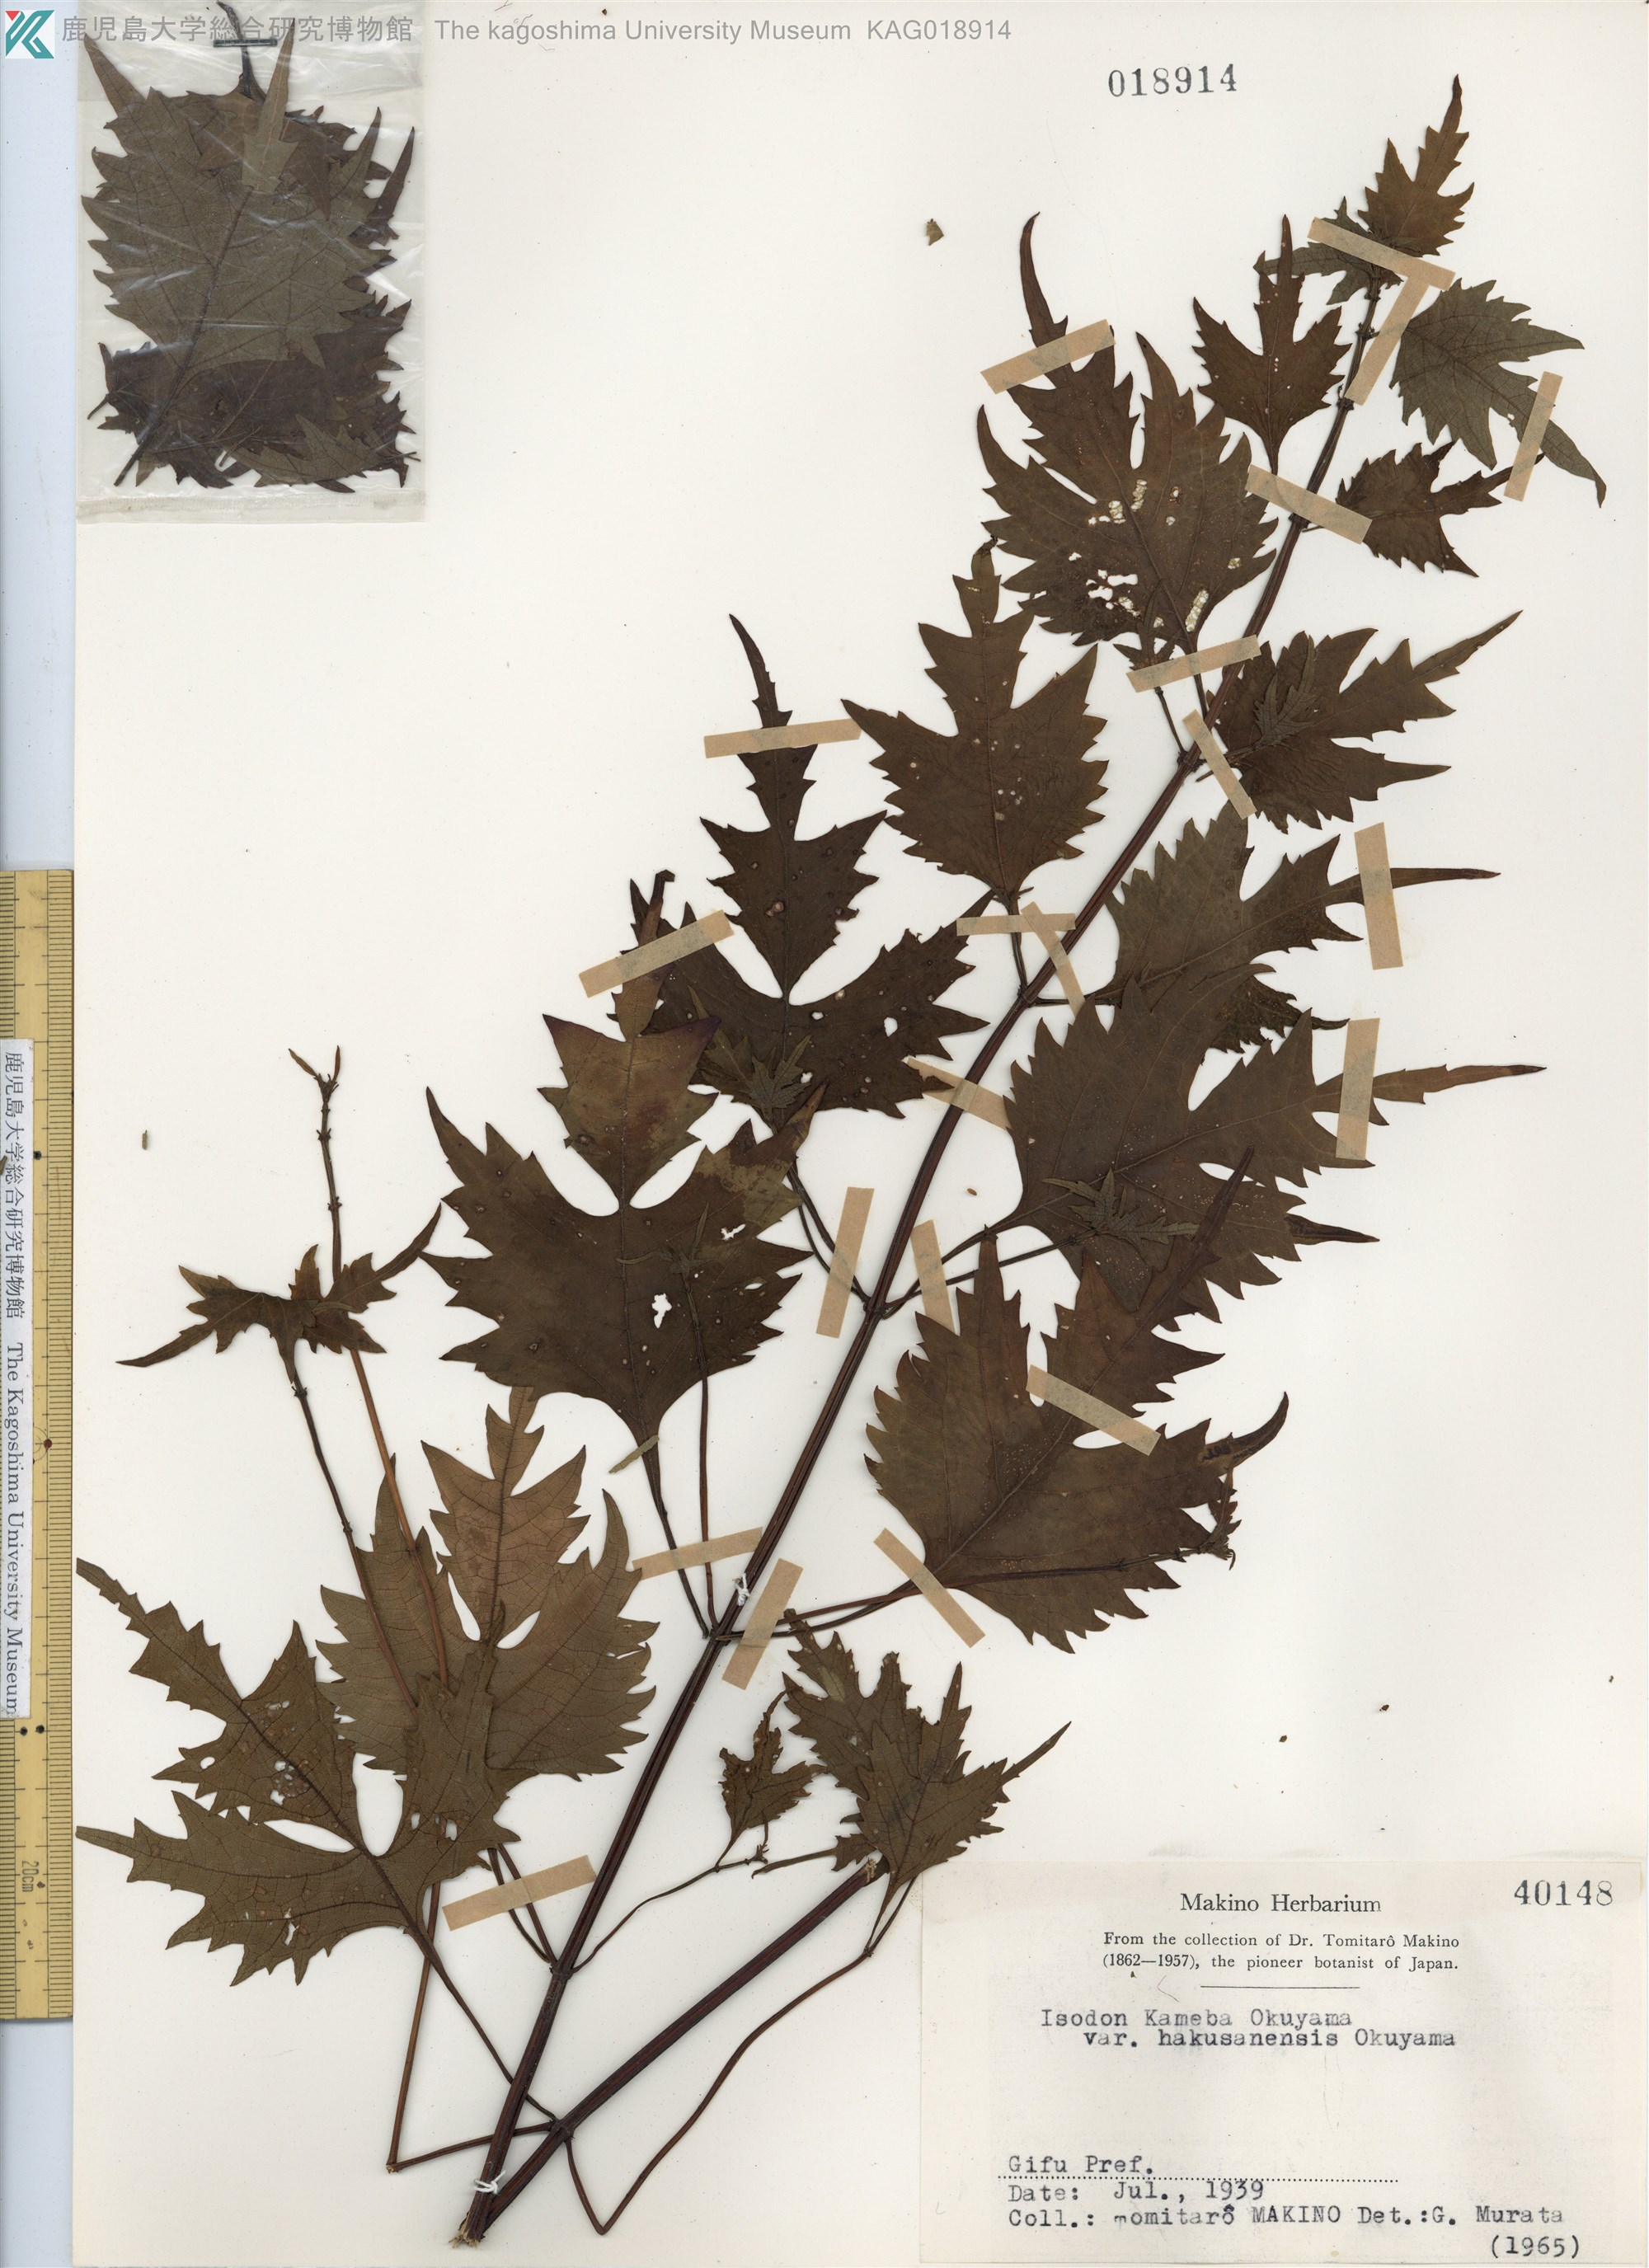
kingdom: Plantae
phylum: Tracheophyta
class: Magnoliopsida
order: Lamiales
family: Lamiaceae
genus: Isodon
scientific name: Isodon umbrosus
